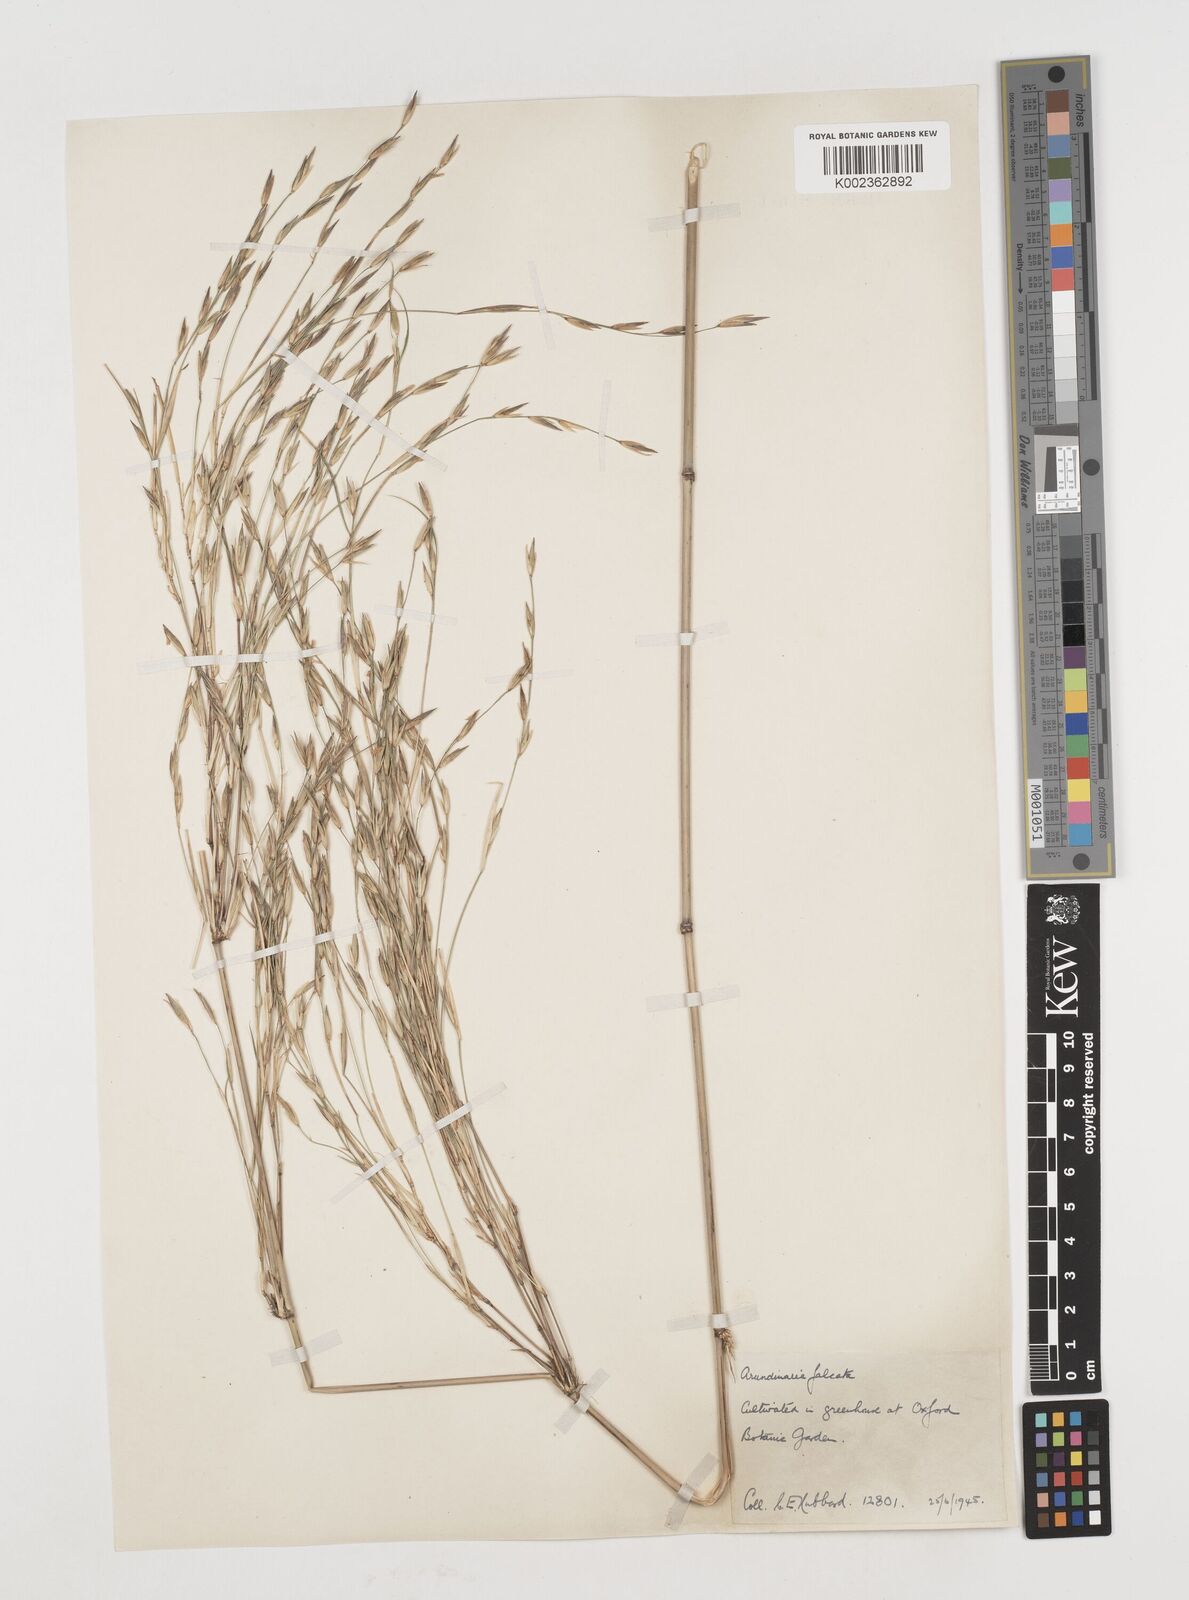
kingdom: Plantae
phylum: Tracheophyta
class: Liliopsida
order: Poales
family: Poaceae
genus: Drepanostachyum
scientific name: Drepanostachyum falcatum
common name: Himalayan bamboo
